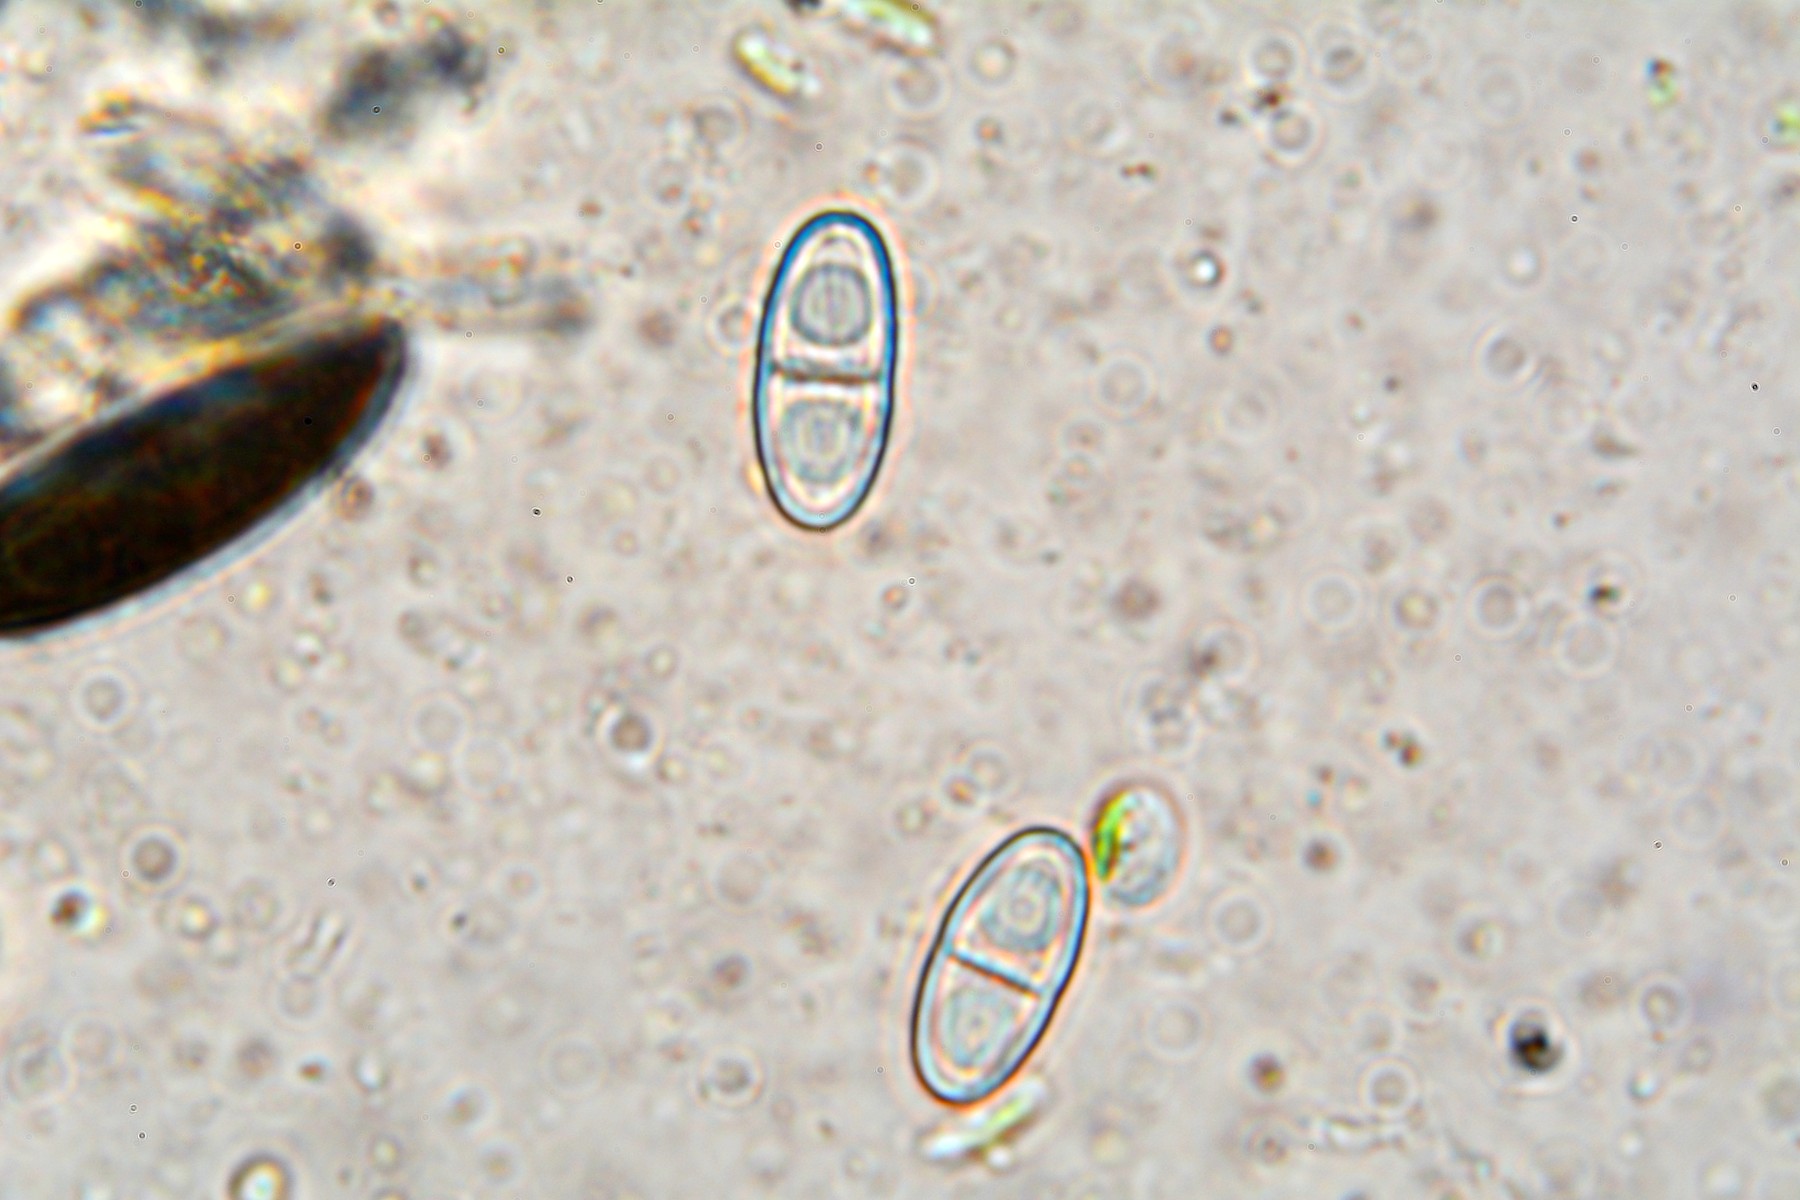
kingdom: Fungi
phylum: Ascomycota
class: Sordariomycetes
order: Hypocreales
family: Nectriaceae
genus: Hydropisphaera
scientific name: Hydropisphaera peziza
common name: skålformet gyldenkerne
